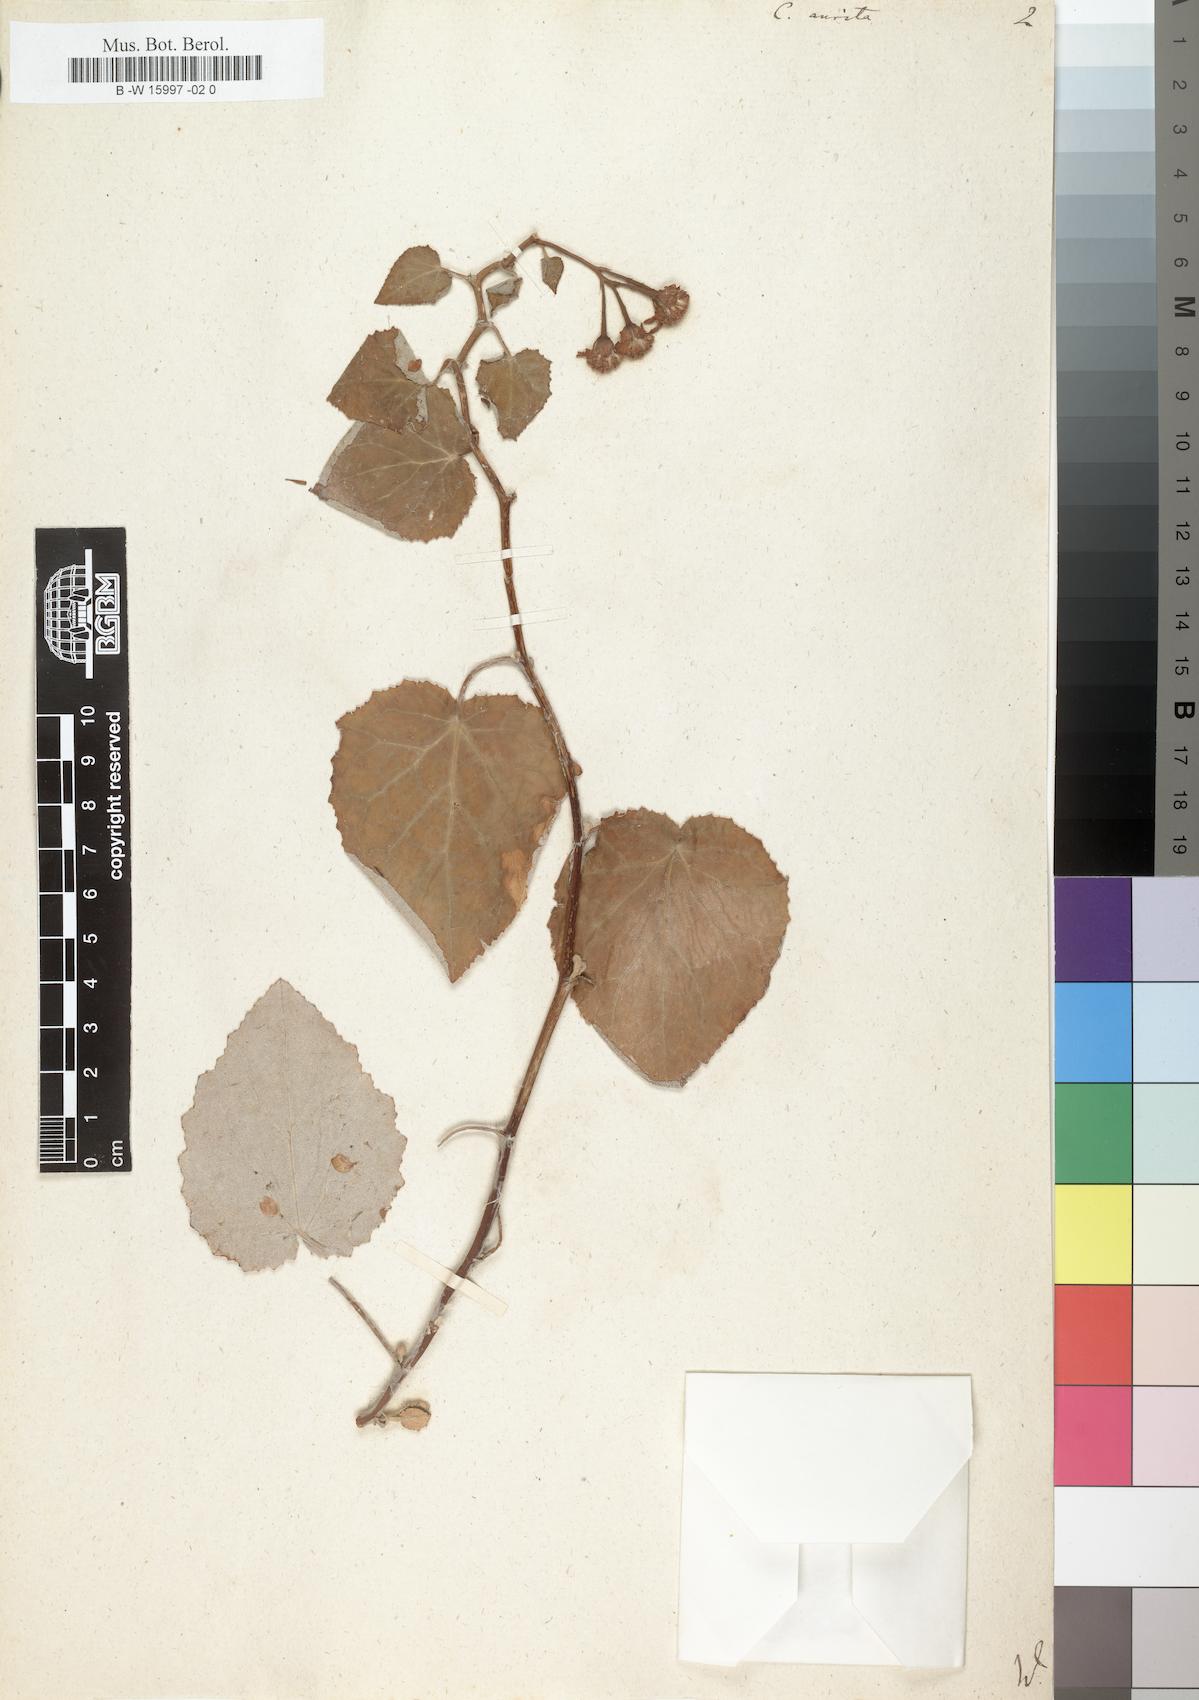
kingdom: Plantae
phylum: Tracheophyta
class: Magnoliopsida
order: Asterales
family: Asteraceae
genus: Pericallis
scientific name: Pericallis lanata
